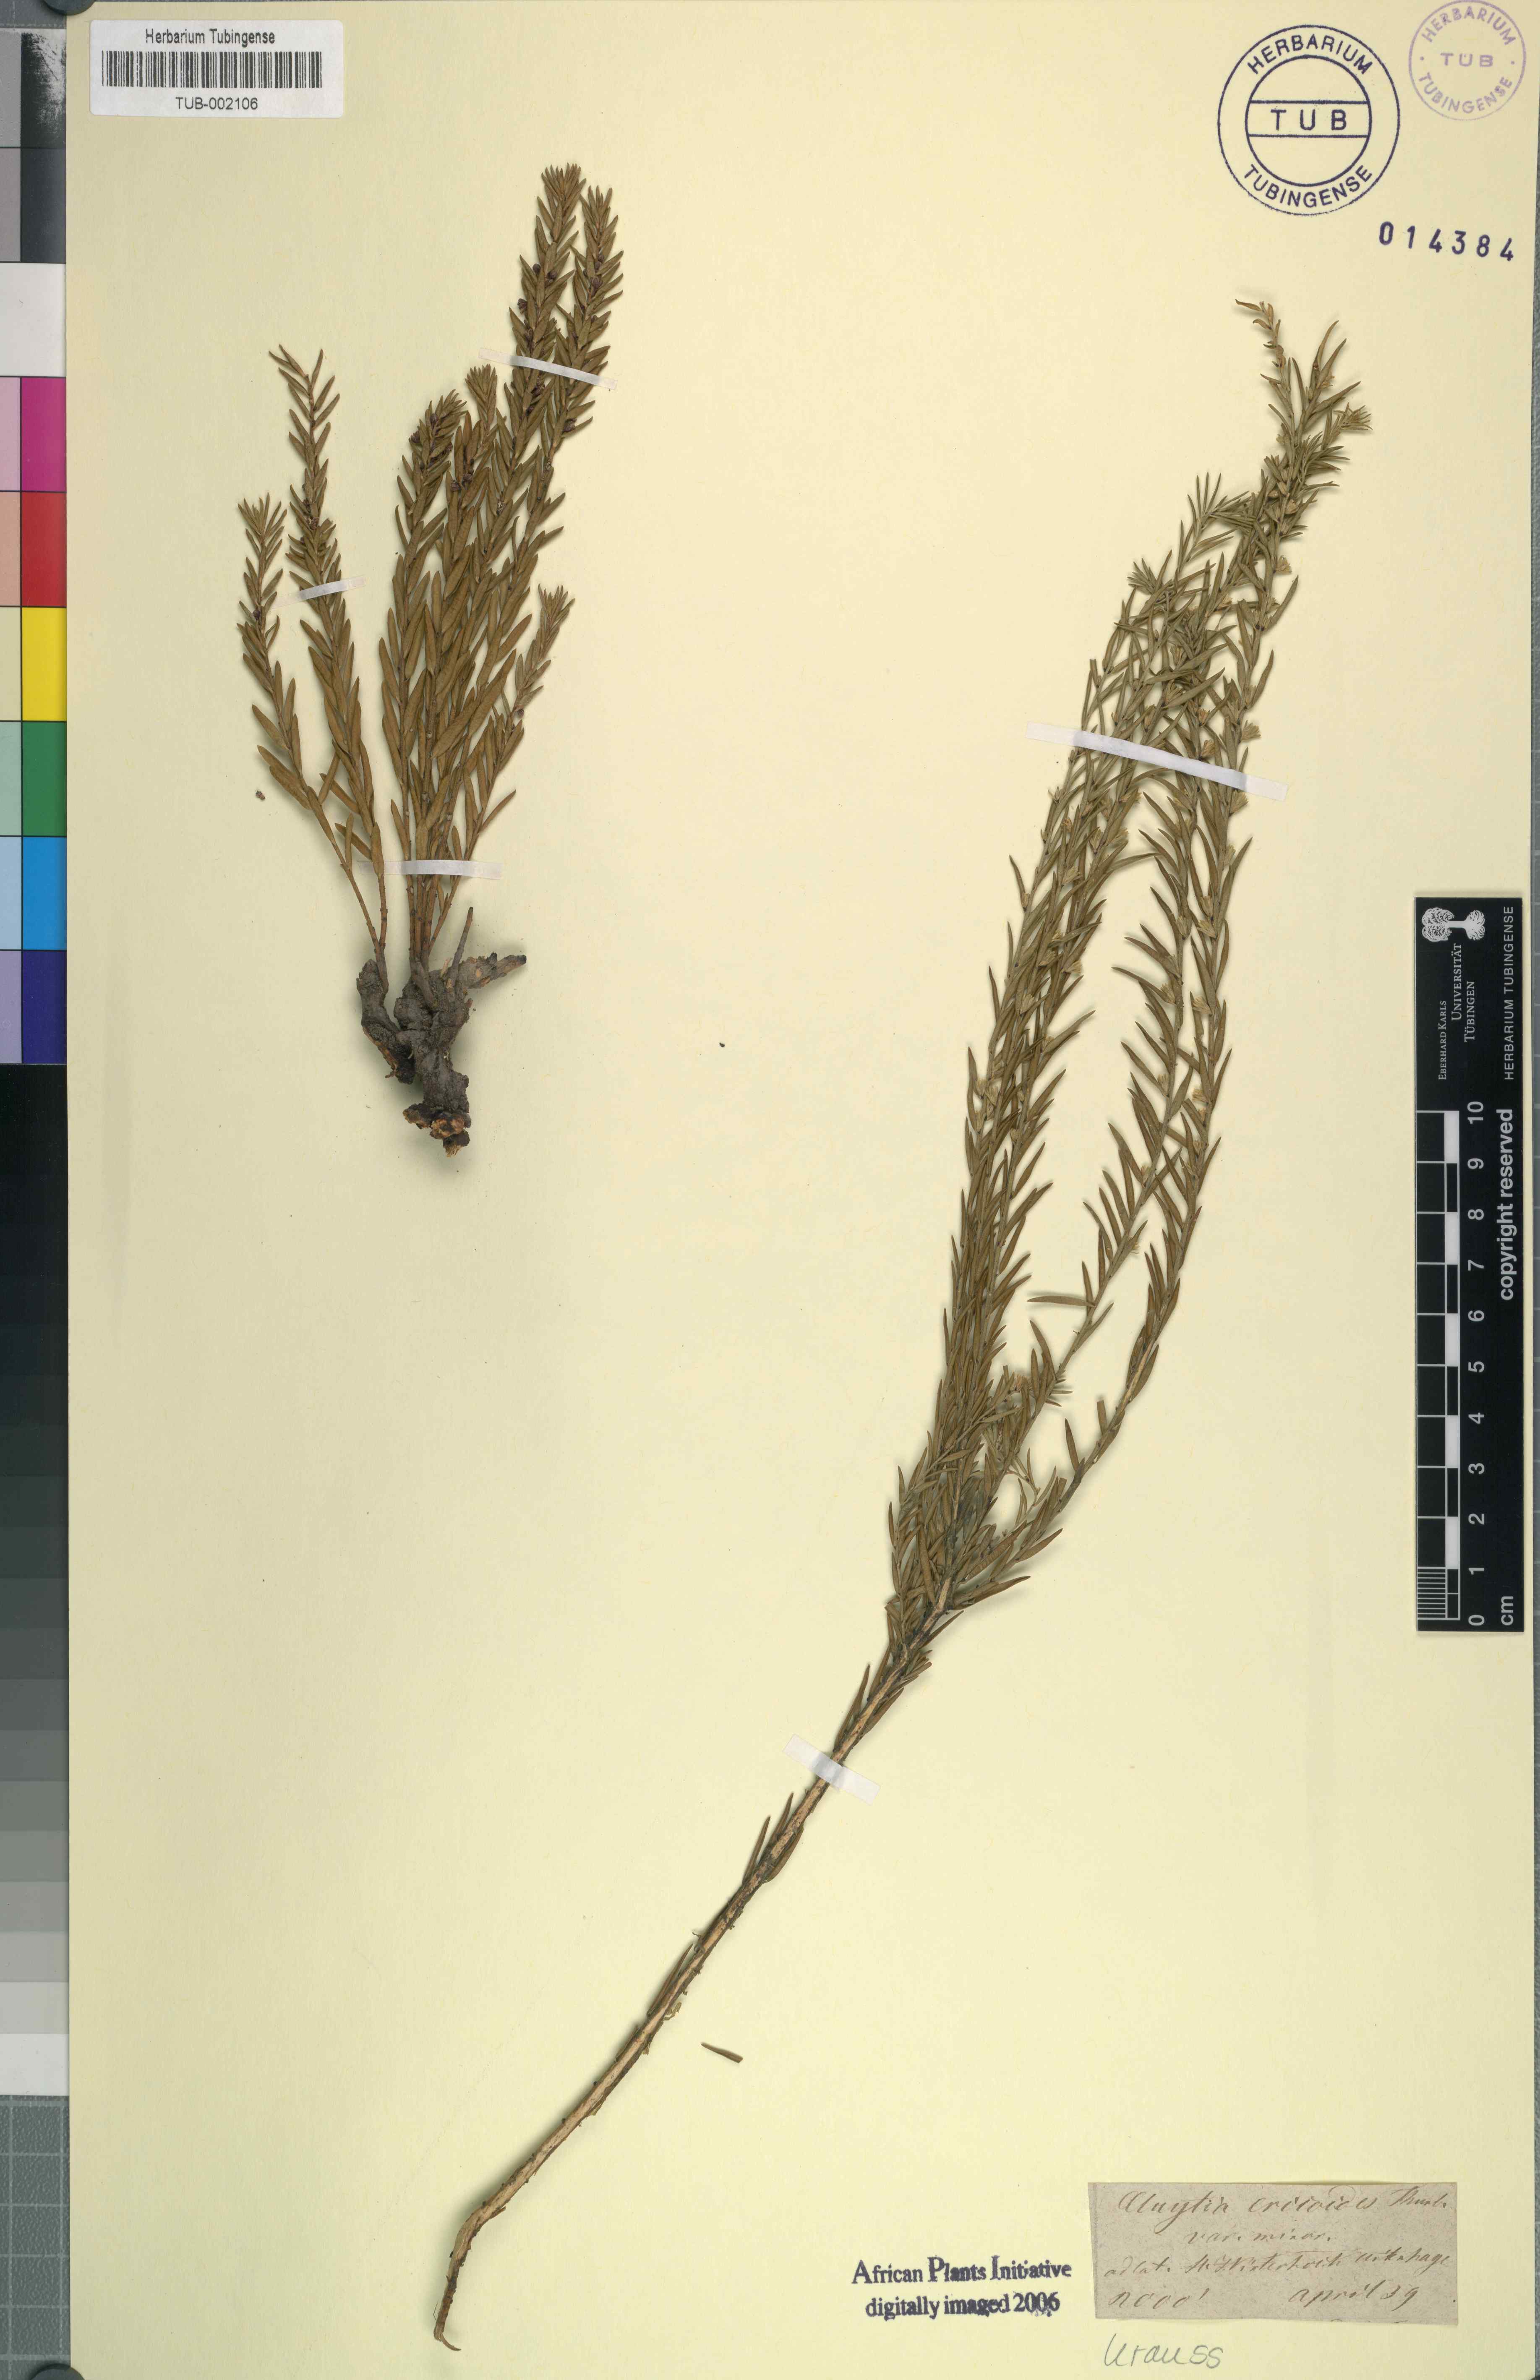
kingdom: Plantae
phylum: Tracheophyta
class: Magnoliopsida
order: Malpighiales
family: Peraceae
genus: Clutia
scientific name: Clutia ericoides
